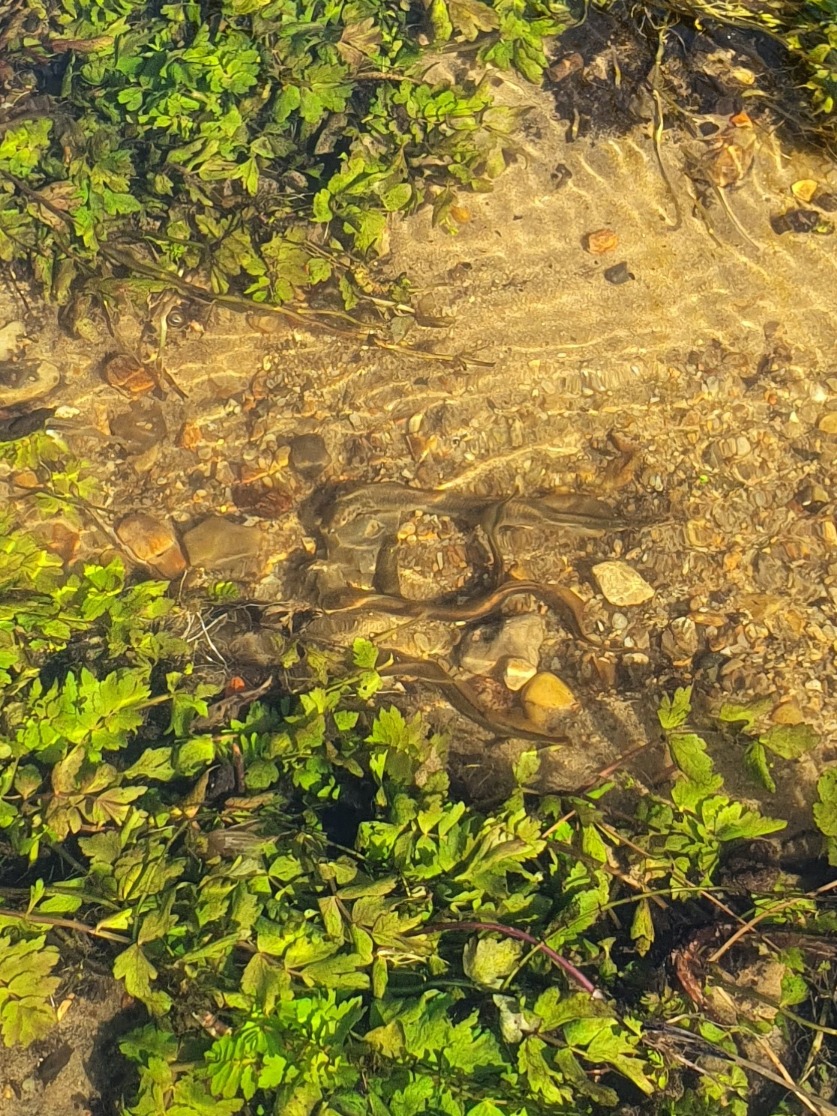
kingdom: Animalia
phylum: Chordata
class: Petromyzonti
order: Petromyzontiformes
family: Petromyzontidae
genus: Lampetra
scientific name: Lampetra planeri
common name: Bæklampret
